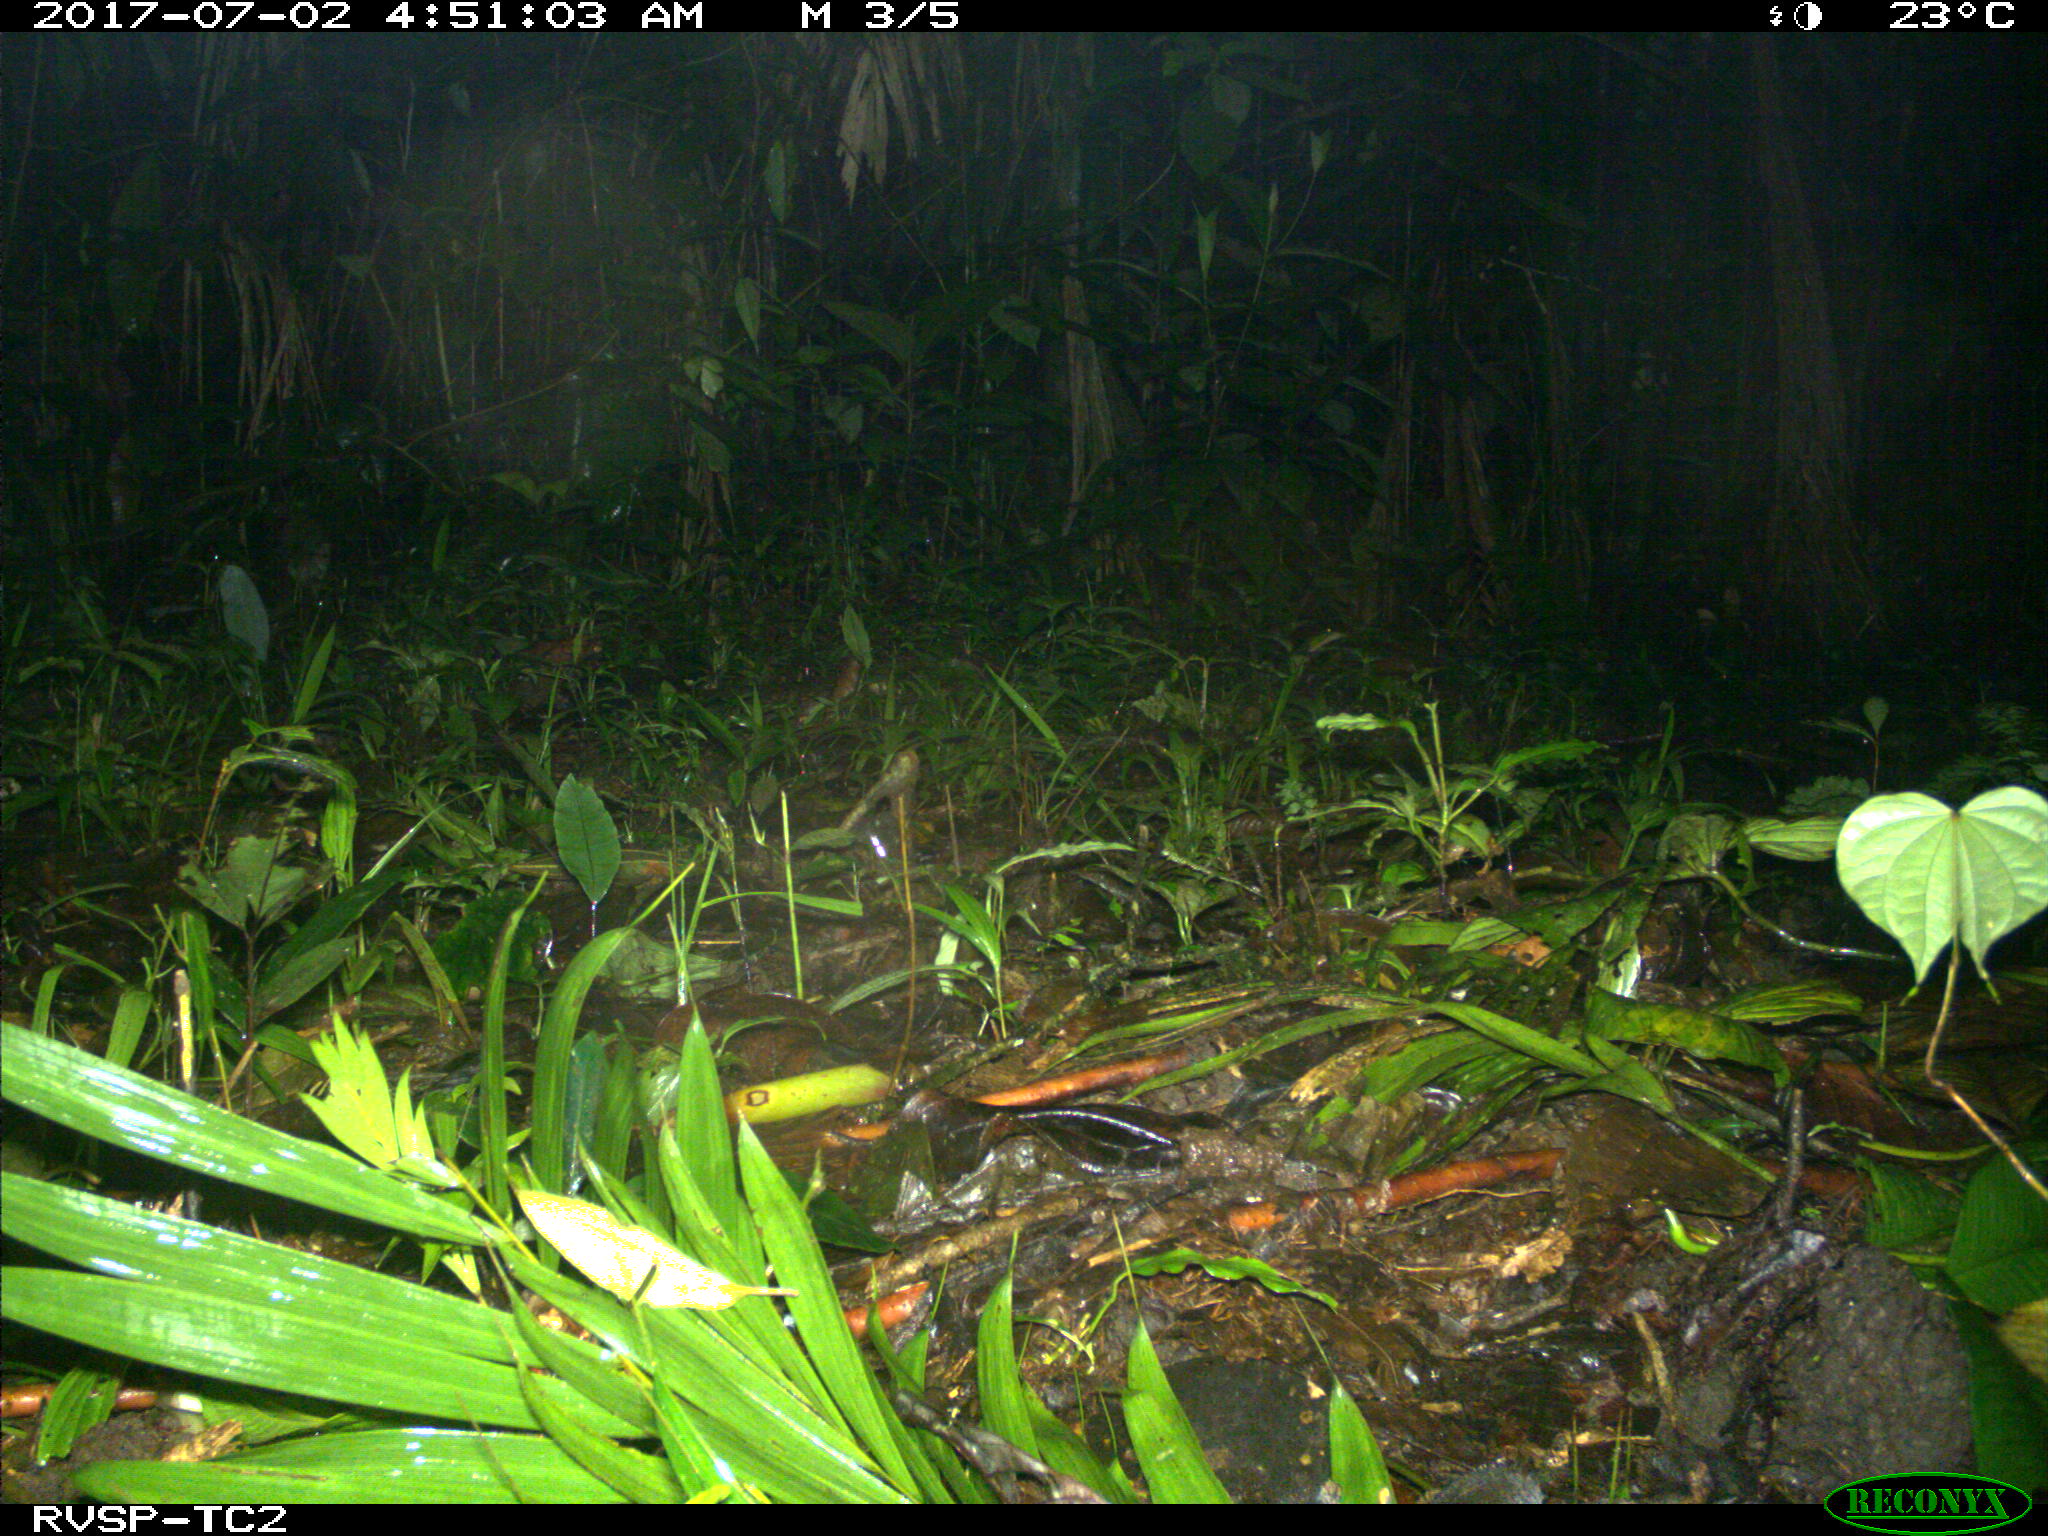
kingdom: Animalia
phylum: Chordata
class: Mammalia
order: Rodentia
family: Echimyidae
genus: Proechimys
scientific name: Proechimys
